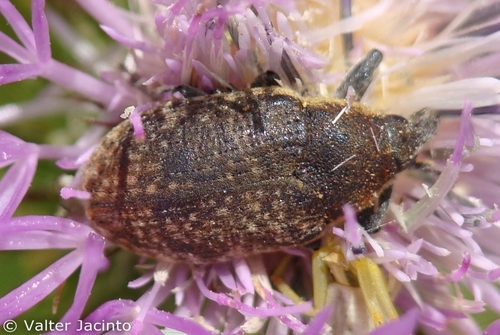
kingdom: Animalia
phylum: Arthropoda
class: Insecta
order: Coleoptera
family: Curculionidae
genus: Larinus
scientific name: Larinus
